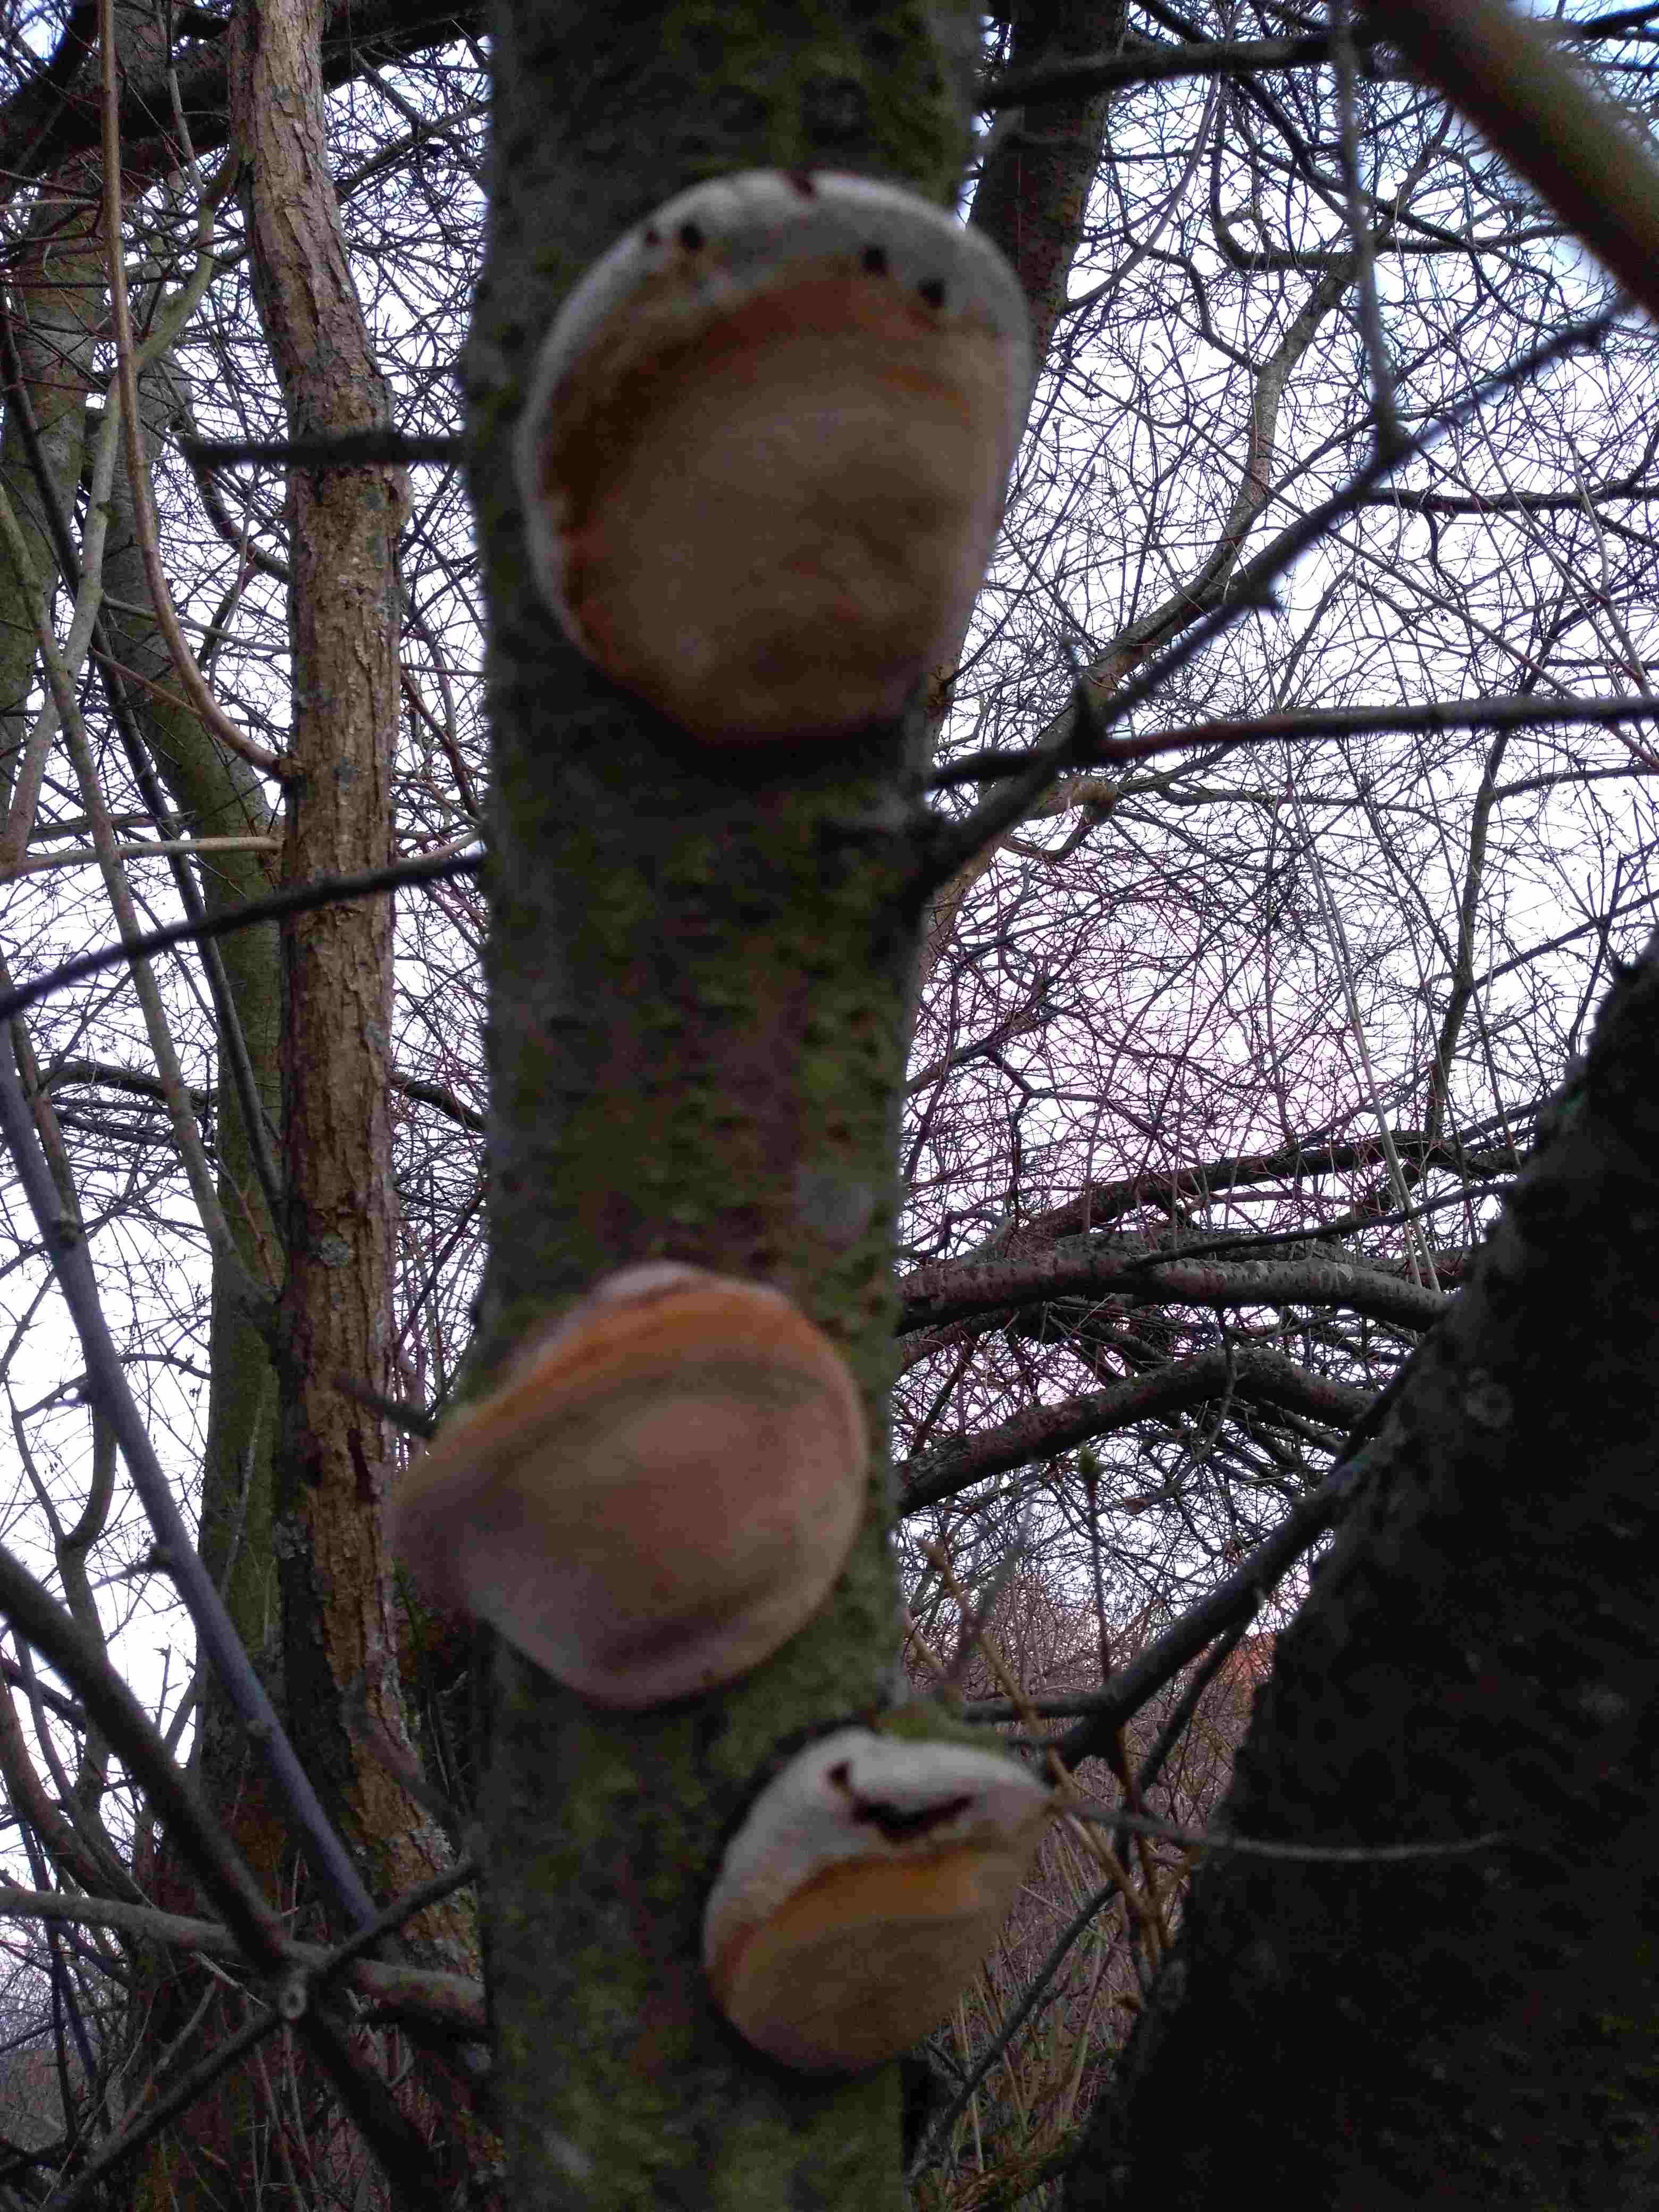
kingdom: Fungi
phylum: Basidiomycota
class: Agaricomycetes
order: Hymenochaetales
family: Hymenochaetaceae
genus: Phellinus
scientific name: Phellinus pomaceus
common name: blomme-ildporesvamp
